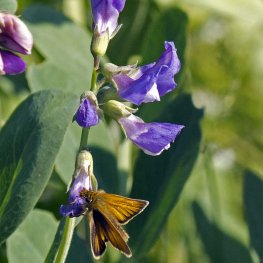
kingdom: Animalia
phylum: Arthropoda
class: Insecta
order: Lepidoptera
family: Hesperiidae
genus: Thymelicus
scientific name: Thymelicus lineola
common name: European Skipper
